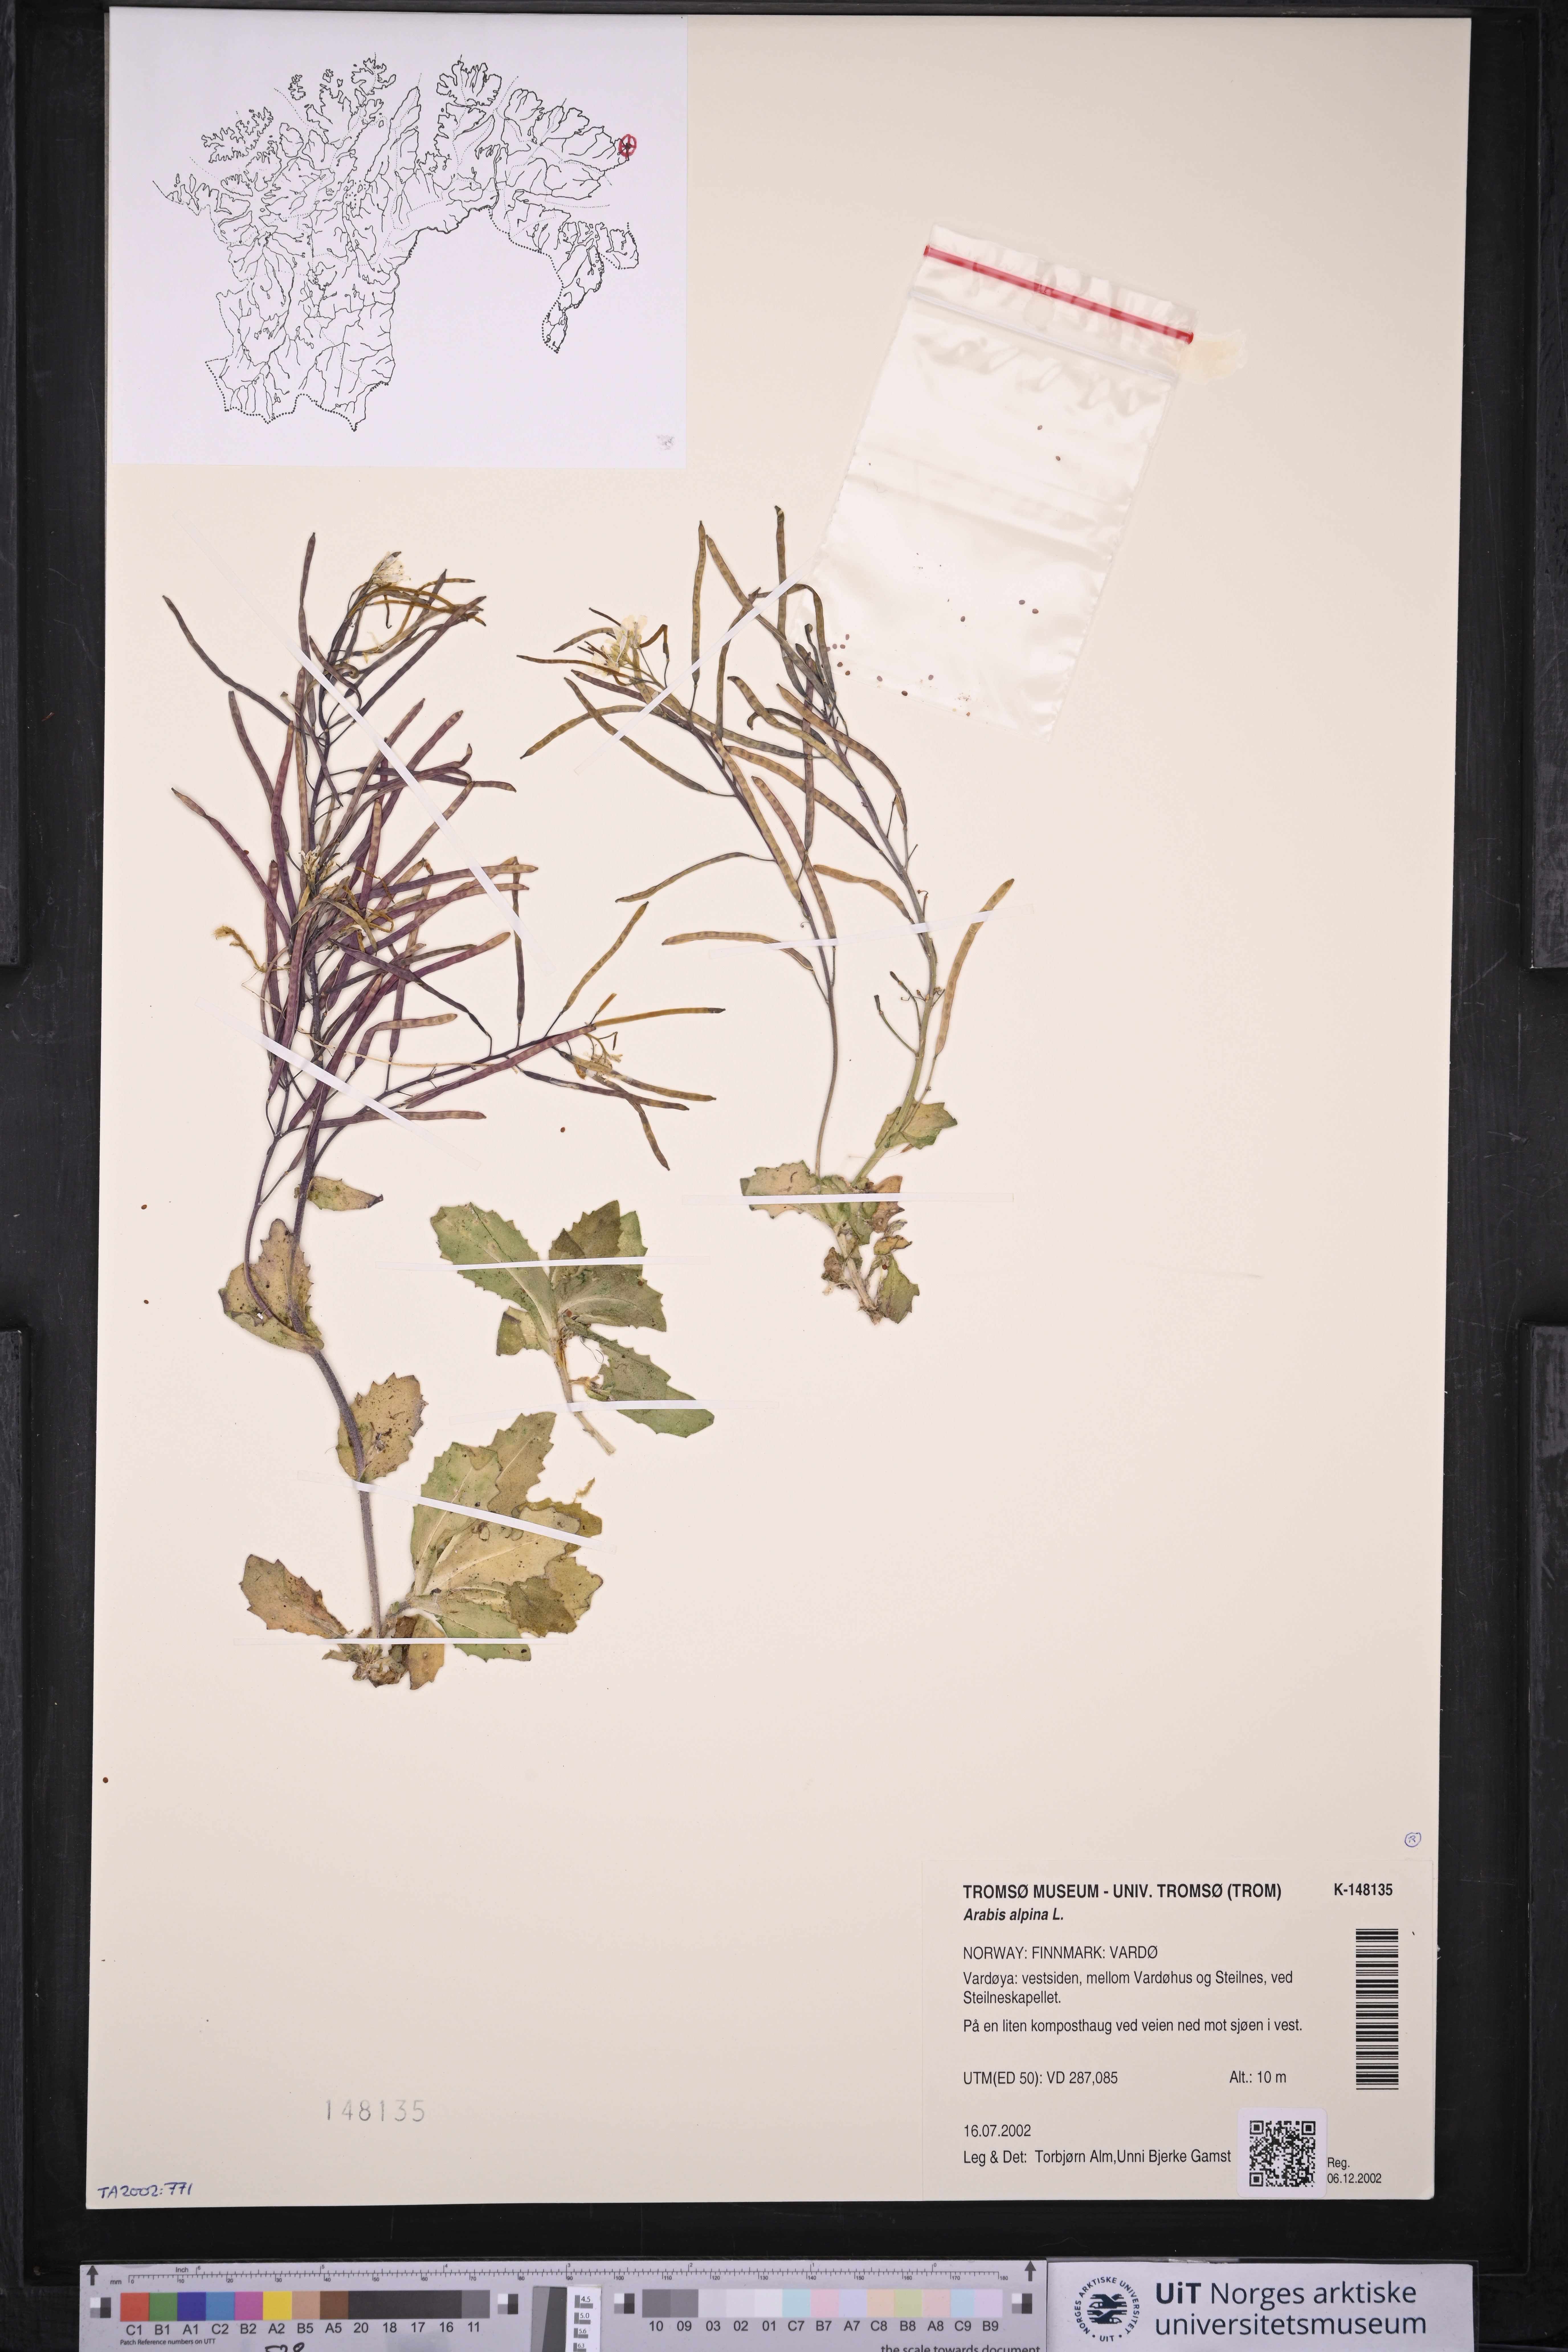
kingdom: Plantae
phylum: Tracheophyta
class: Magnoliopsida
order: Brassicales
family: Brassicaceae
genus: Arabis
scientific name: Arabis alpina
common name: Alpine rock-cress
